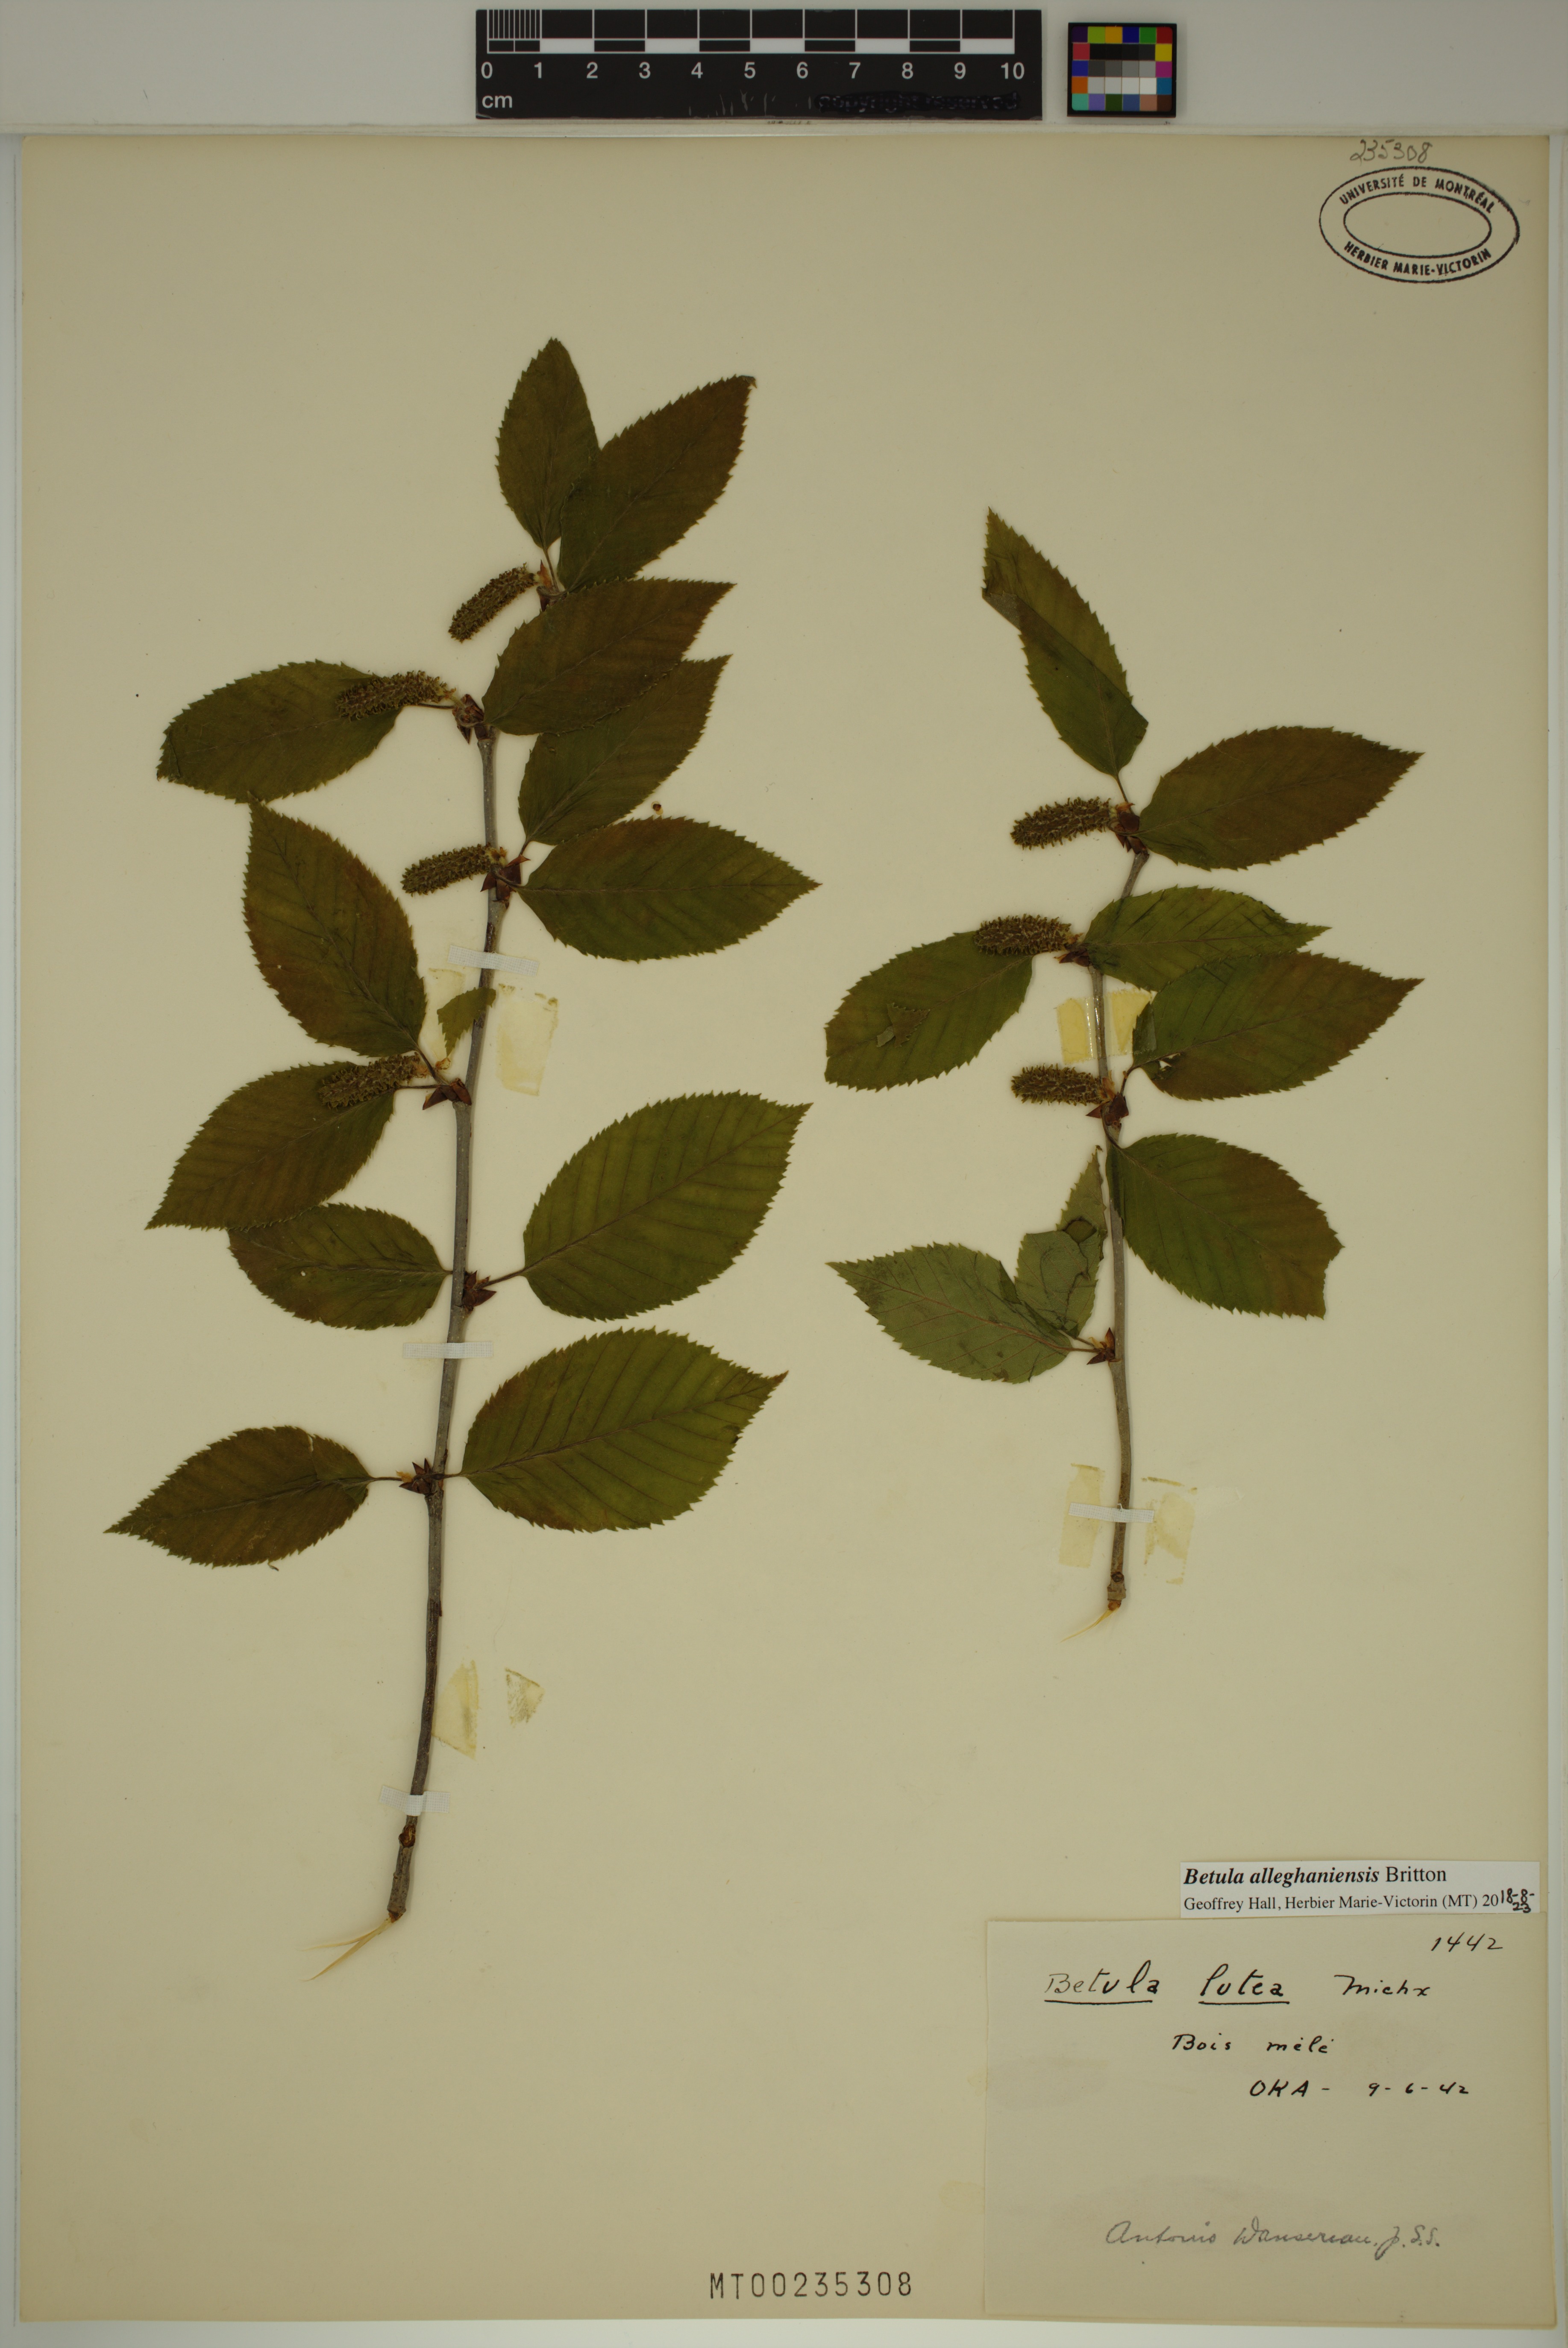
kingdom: Plantae
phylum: Tracheophyta
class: Magnoliopsida
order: Fagales
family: Betulaceae
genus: Betula
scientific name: Betula alleghaniensis
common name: Yellow birch
